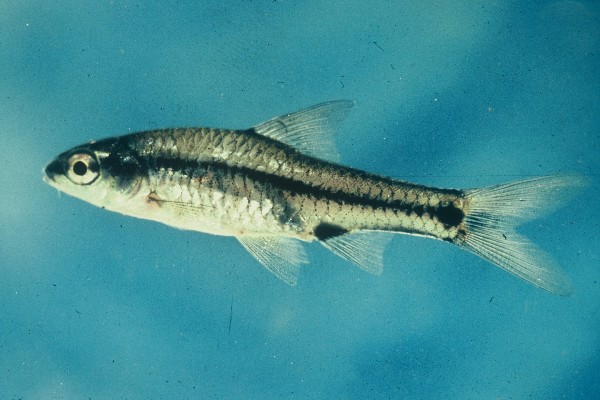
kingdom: Animalia
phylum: Chordata
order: Cypriniformes
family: Cyprinidae
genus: Enteromius
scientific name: Enteromius macrotaenia
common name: Broadband barb
